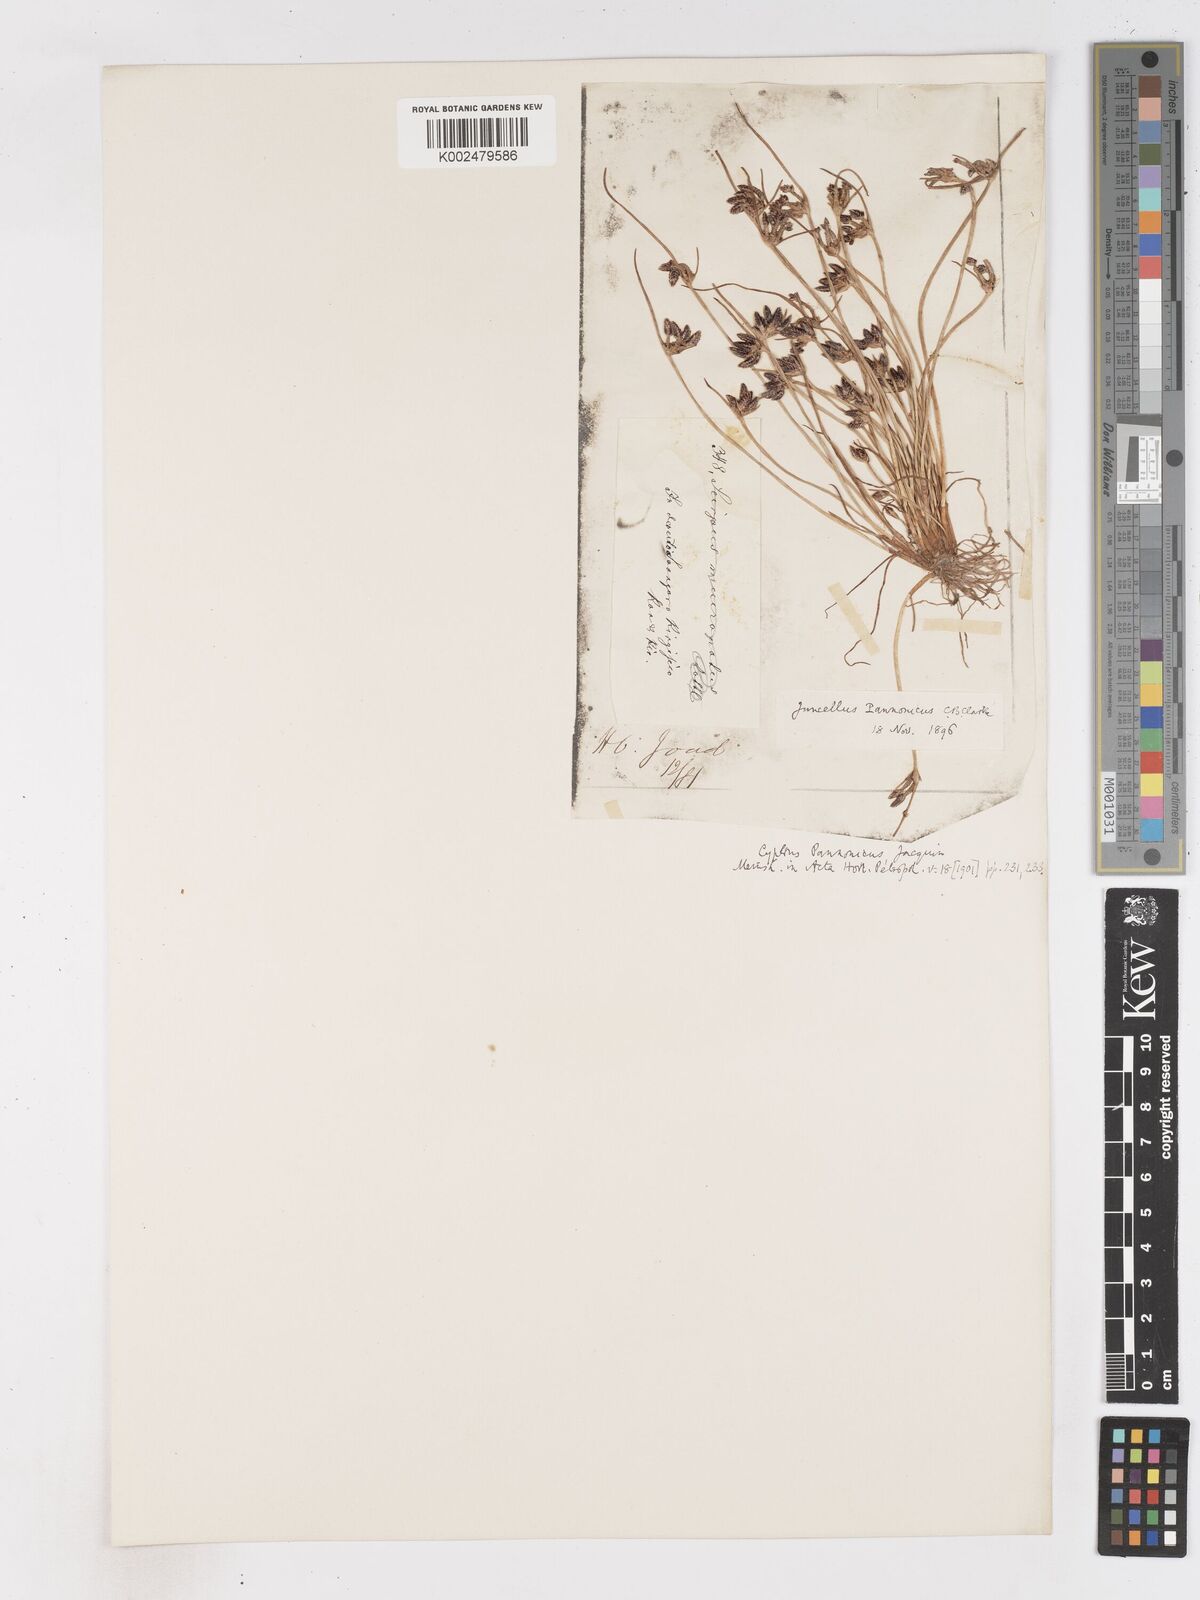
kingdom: Plantae
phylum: Tracheophyta
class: Liliopsida
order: Poales
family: Cyperaceae
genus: Cyperus
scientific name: Cyperus pannonicus
